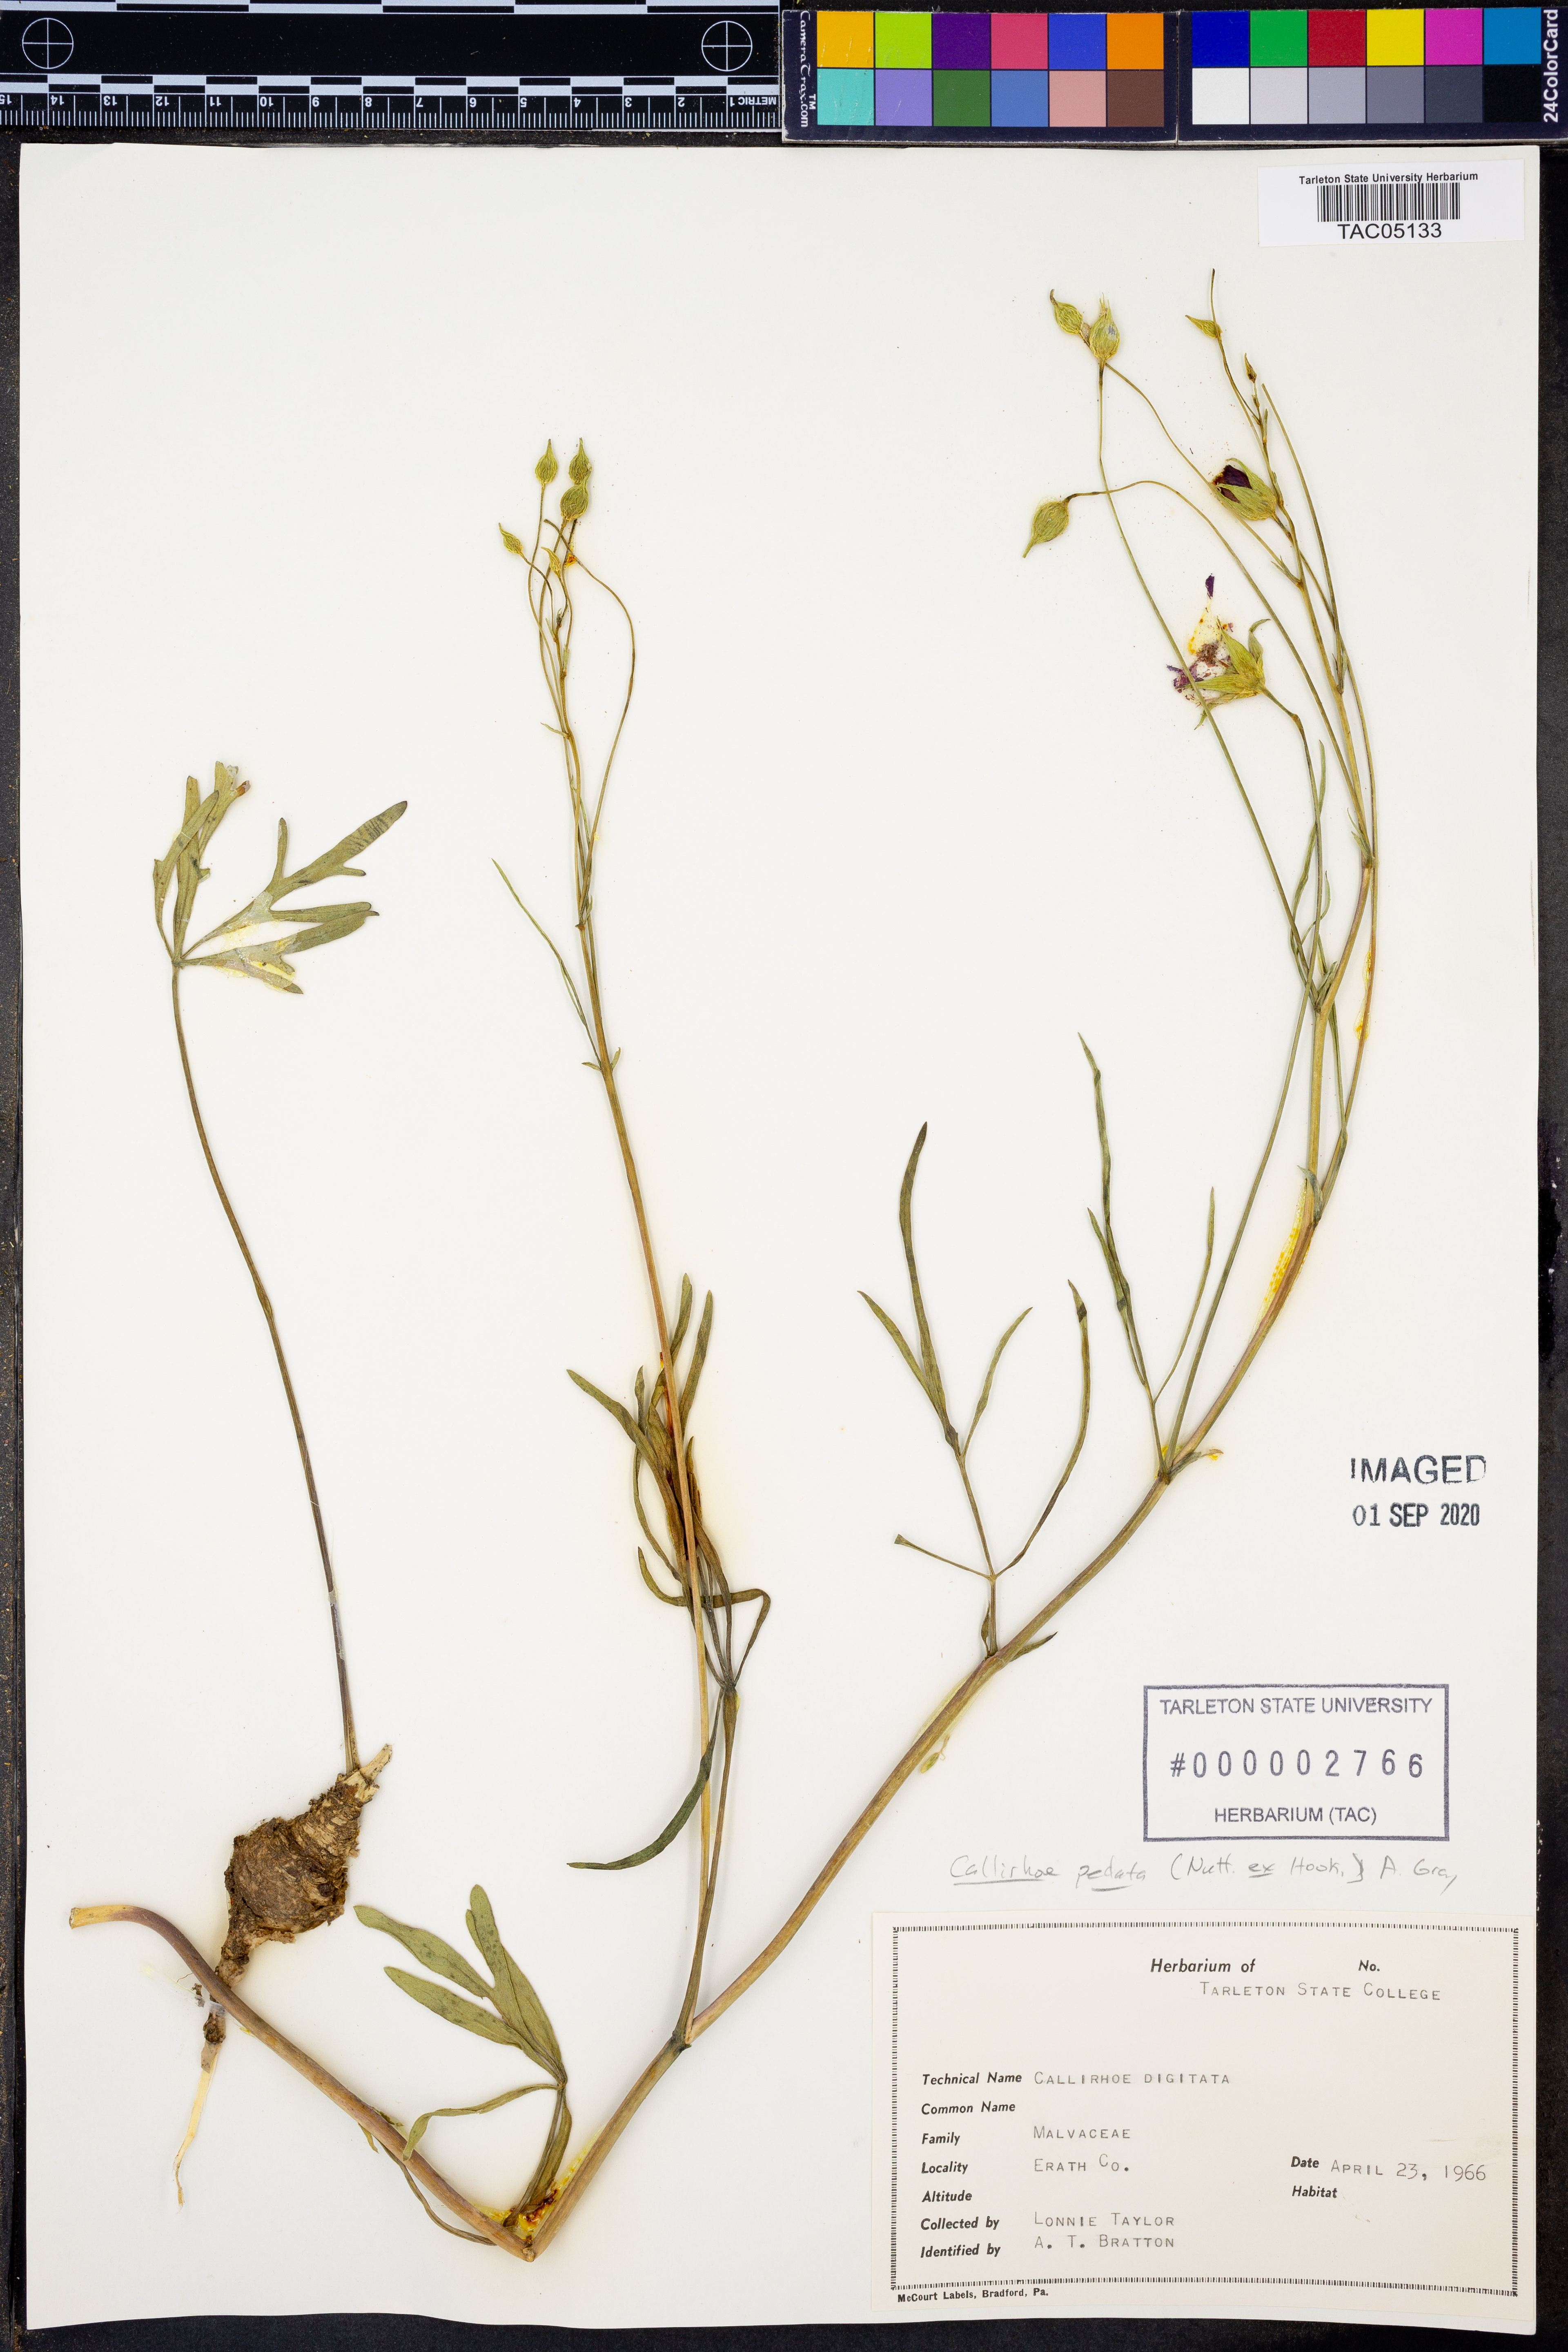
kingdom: Plantae
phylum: Tracheophyta
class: Magnoliopsida
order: Malvales
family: Malvaceae
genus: Callirhoe
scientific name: Callirhoe pedata
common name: Finger poppy-mallow
